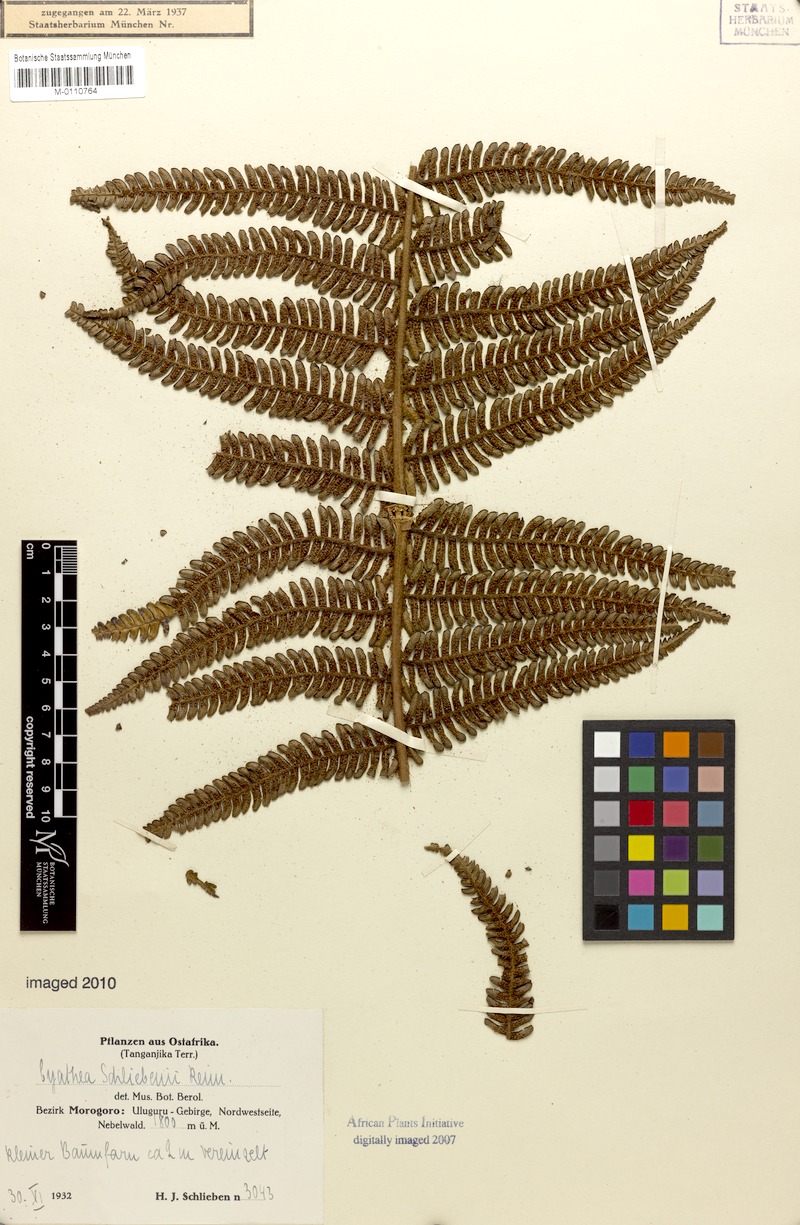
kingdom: Plantae
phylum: Tracheophyta
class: Polypodiopsida
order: Cyatheales
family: Cyatheaceae
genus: Alsophila
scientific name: Alsophila tanzaniana
